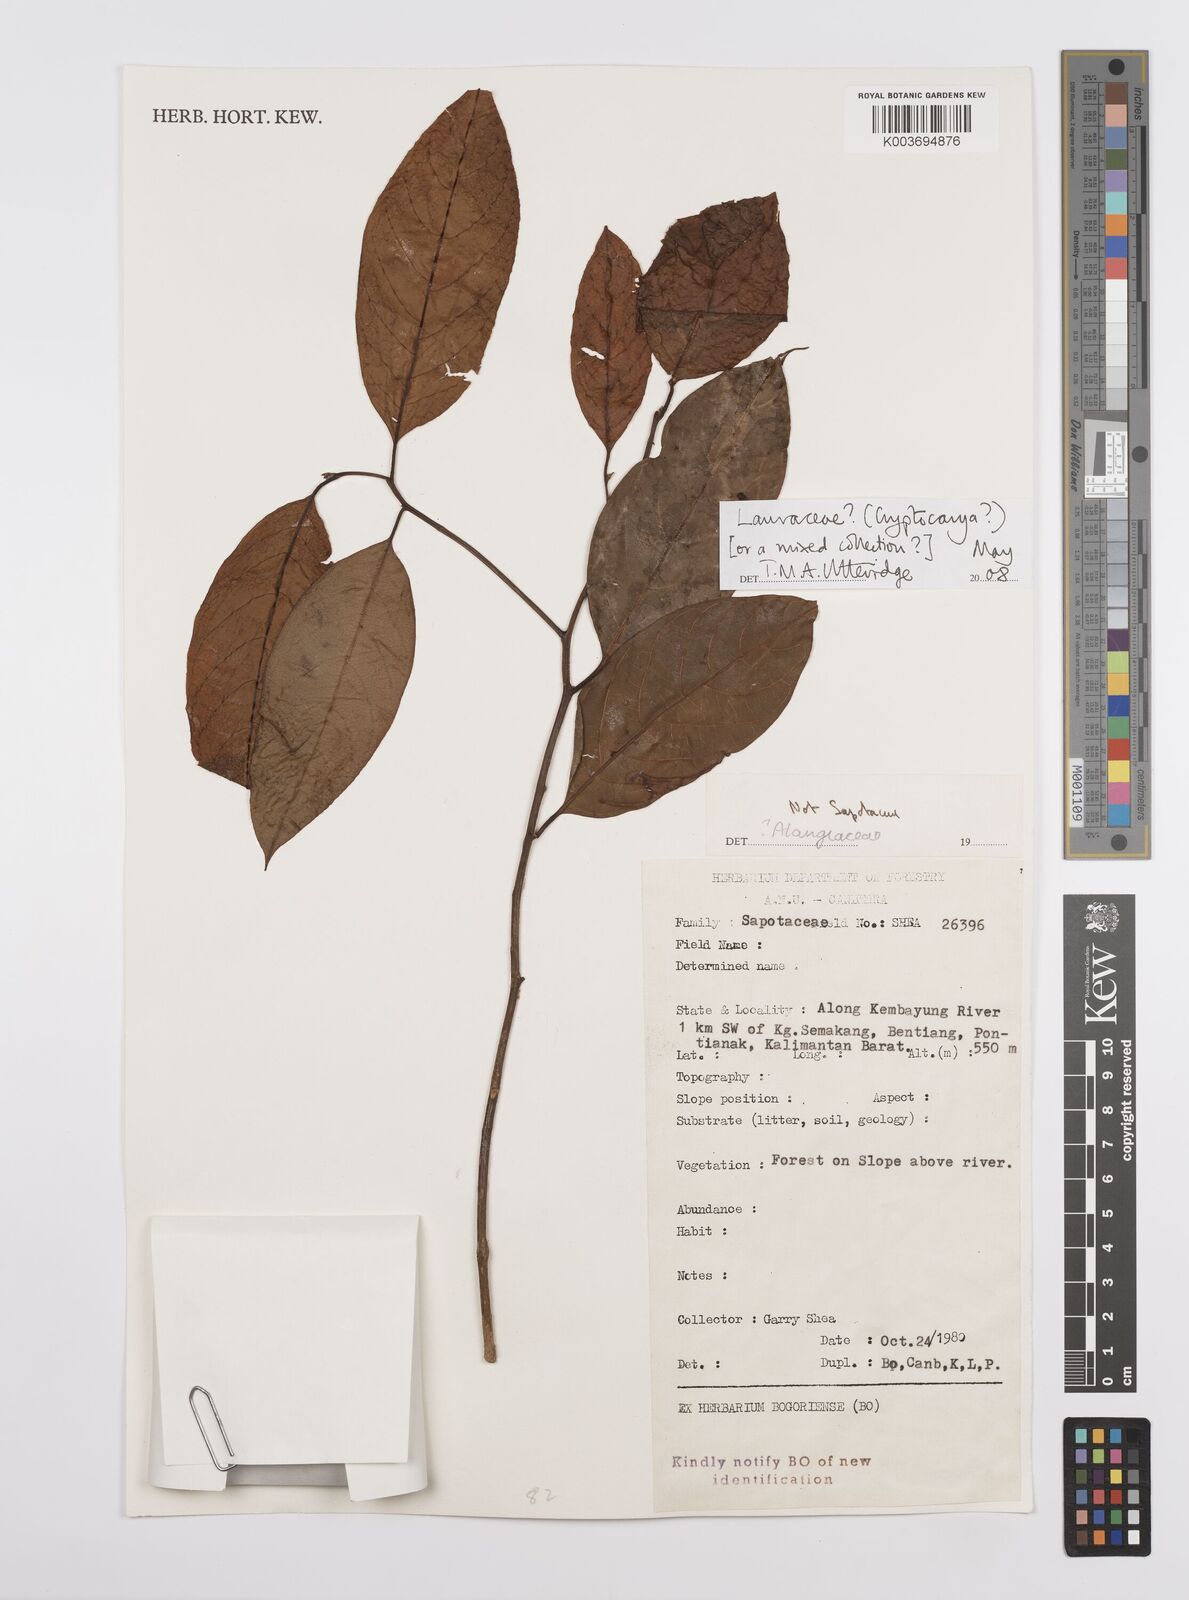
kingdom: Plantae
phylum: Tracheophyta
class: Magnoliopsida
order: Laurales
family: Lauraceae
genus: Cryptocarya
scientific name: Cryptocarya
